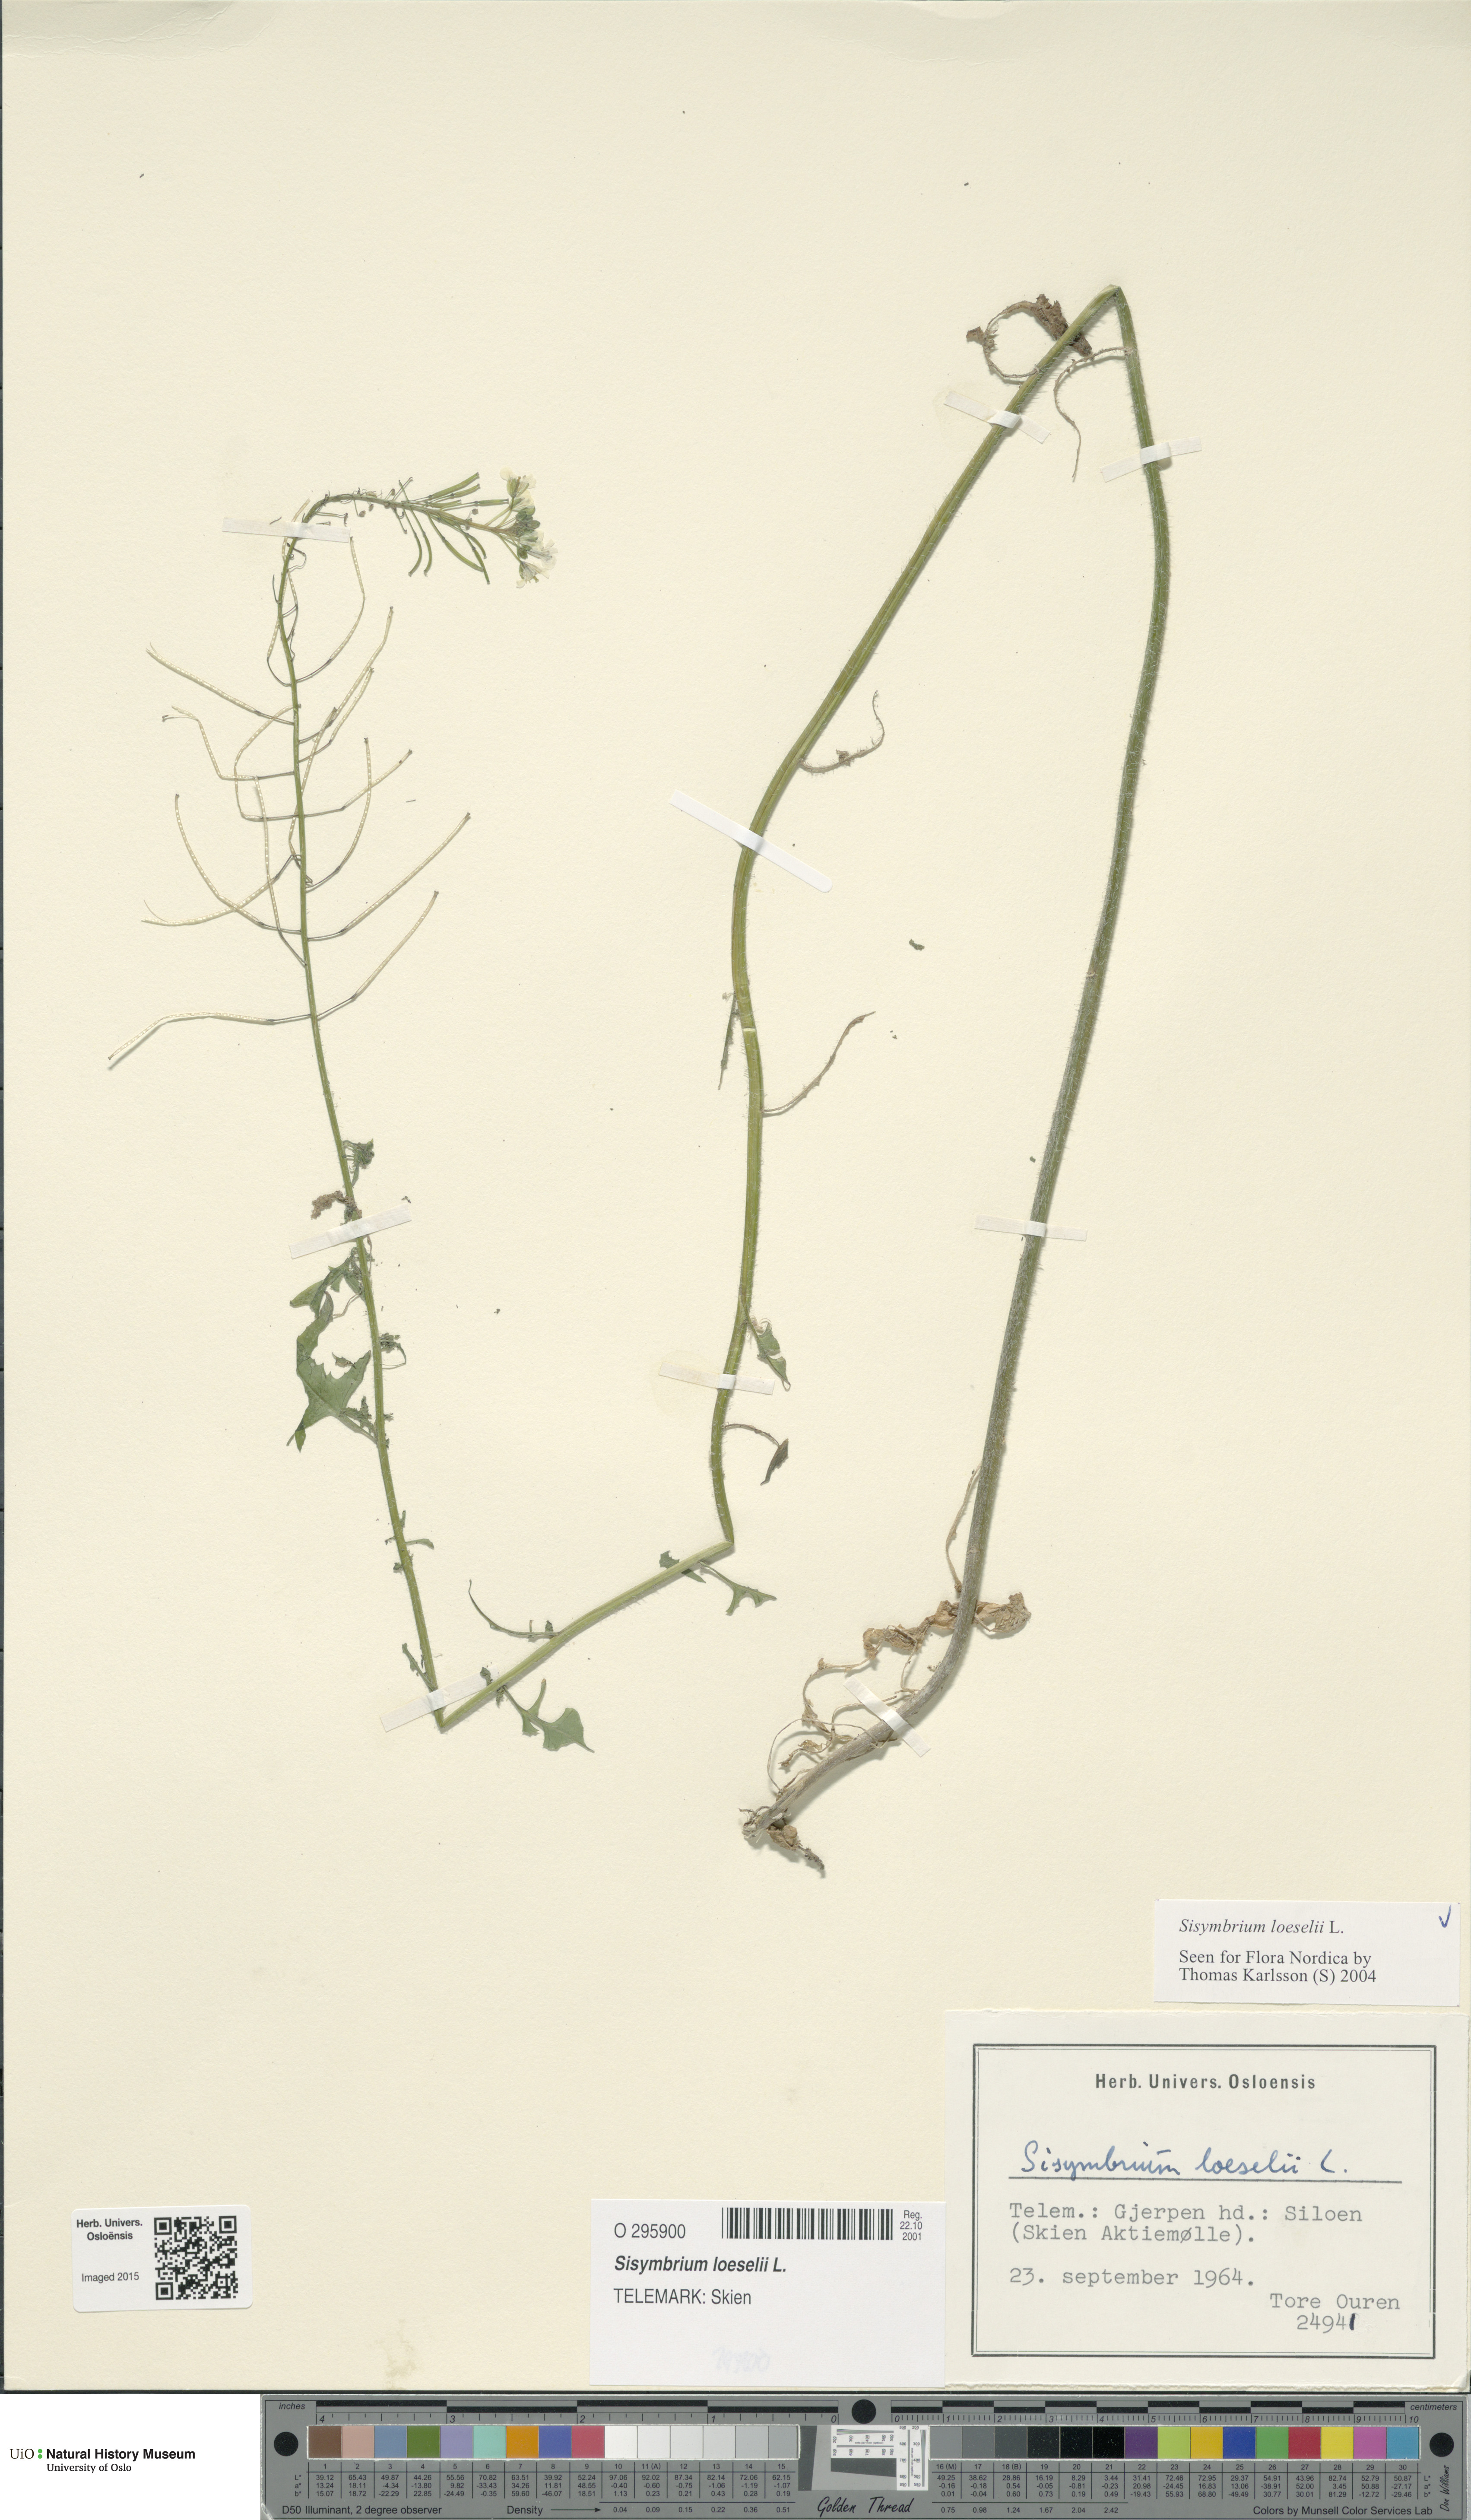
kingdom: Plantae
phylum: Tracheophyta
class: Magnoliopsida
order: Brassicales
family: Brassicaceae
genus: Sisymbrium
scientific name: Sisymbrium loeselii
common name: False london-rocket
